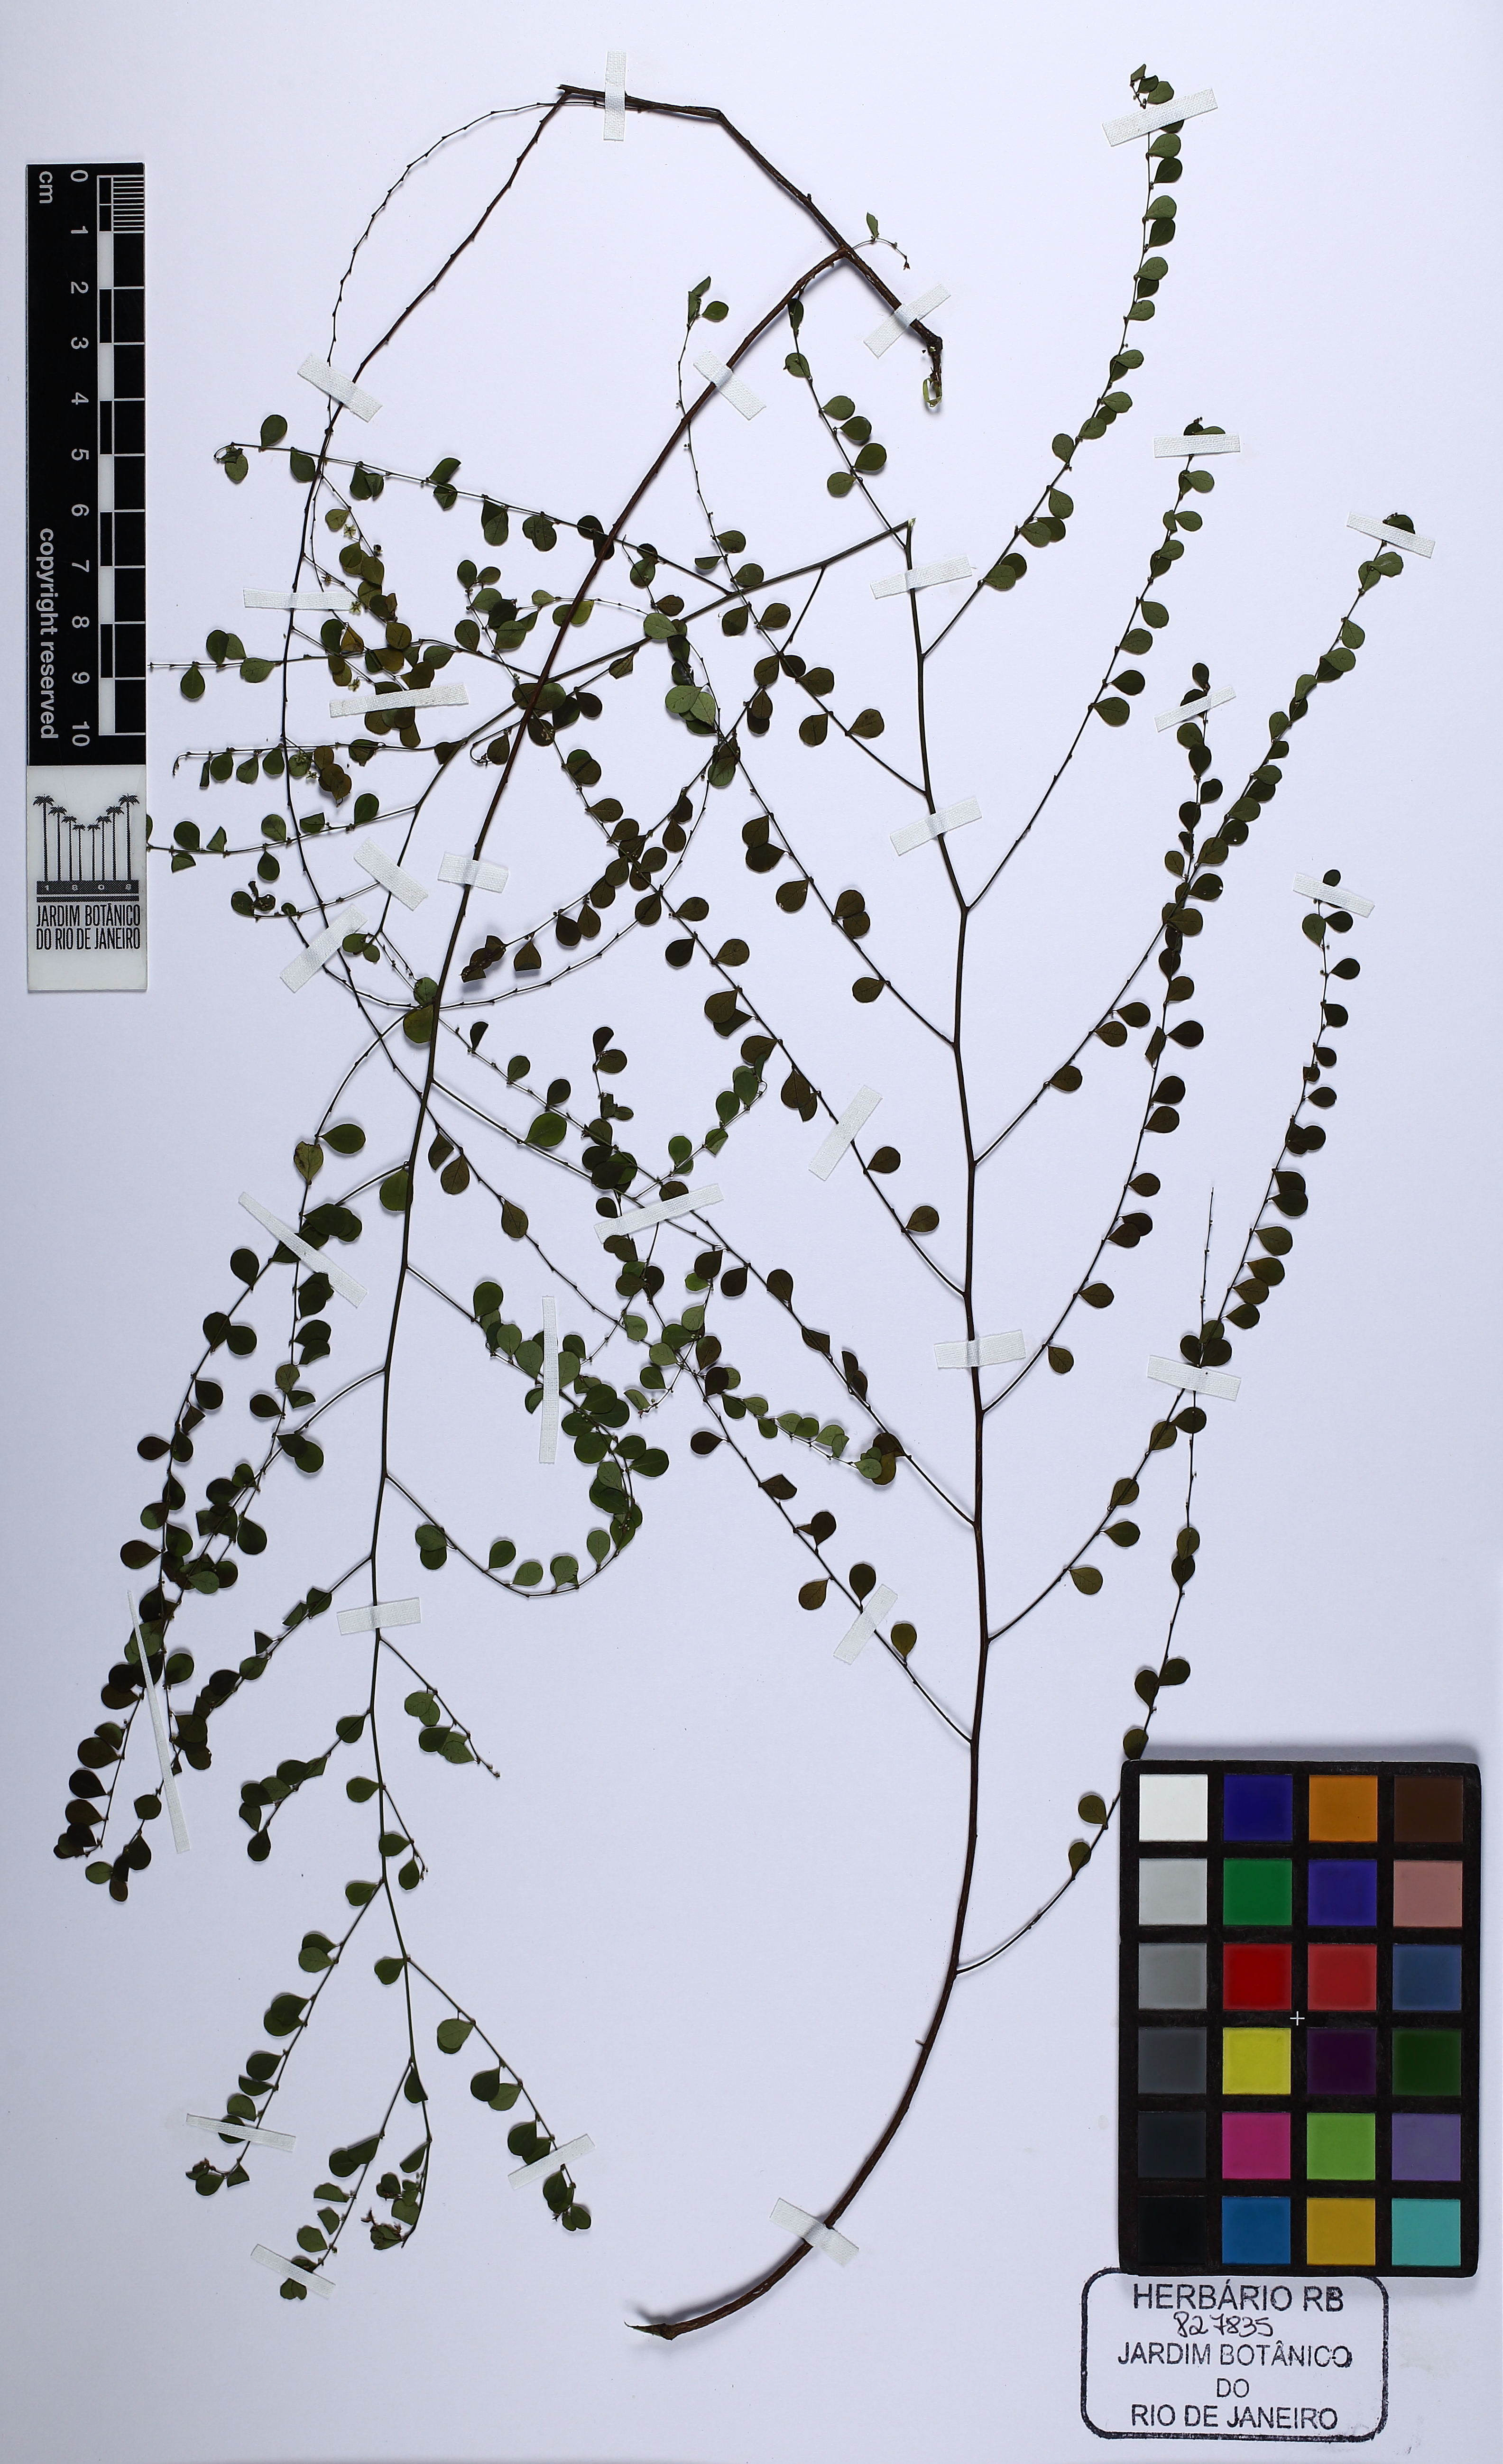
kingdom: Plantae
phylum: Tracheophyta
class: Magnoliopsida
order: Malpighiales
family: Phyllanthaceae
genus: Phyllanthus
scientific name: Phyllanthus
